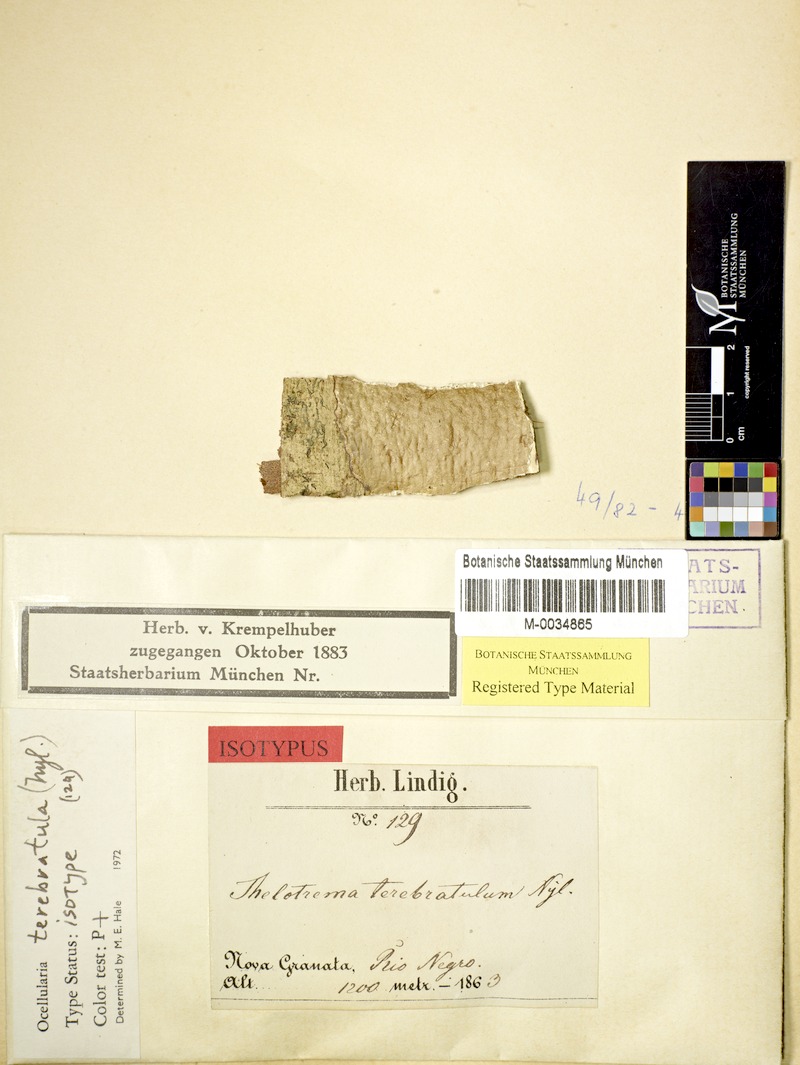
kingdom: Fungi
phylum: Ascomycota
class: Lecanoromycetes
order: Ostropales
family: Graphidaceae
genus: Myriotrema
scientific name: Myriotrema terebratulum
